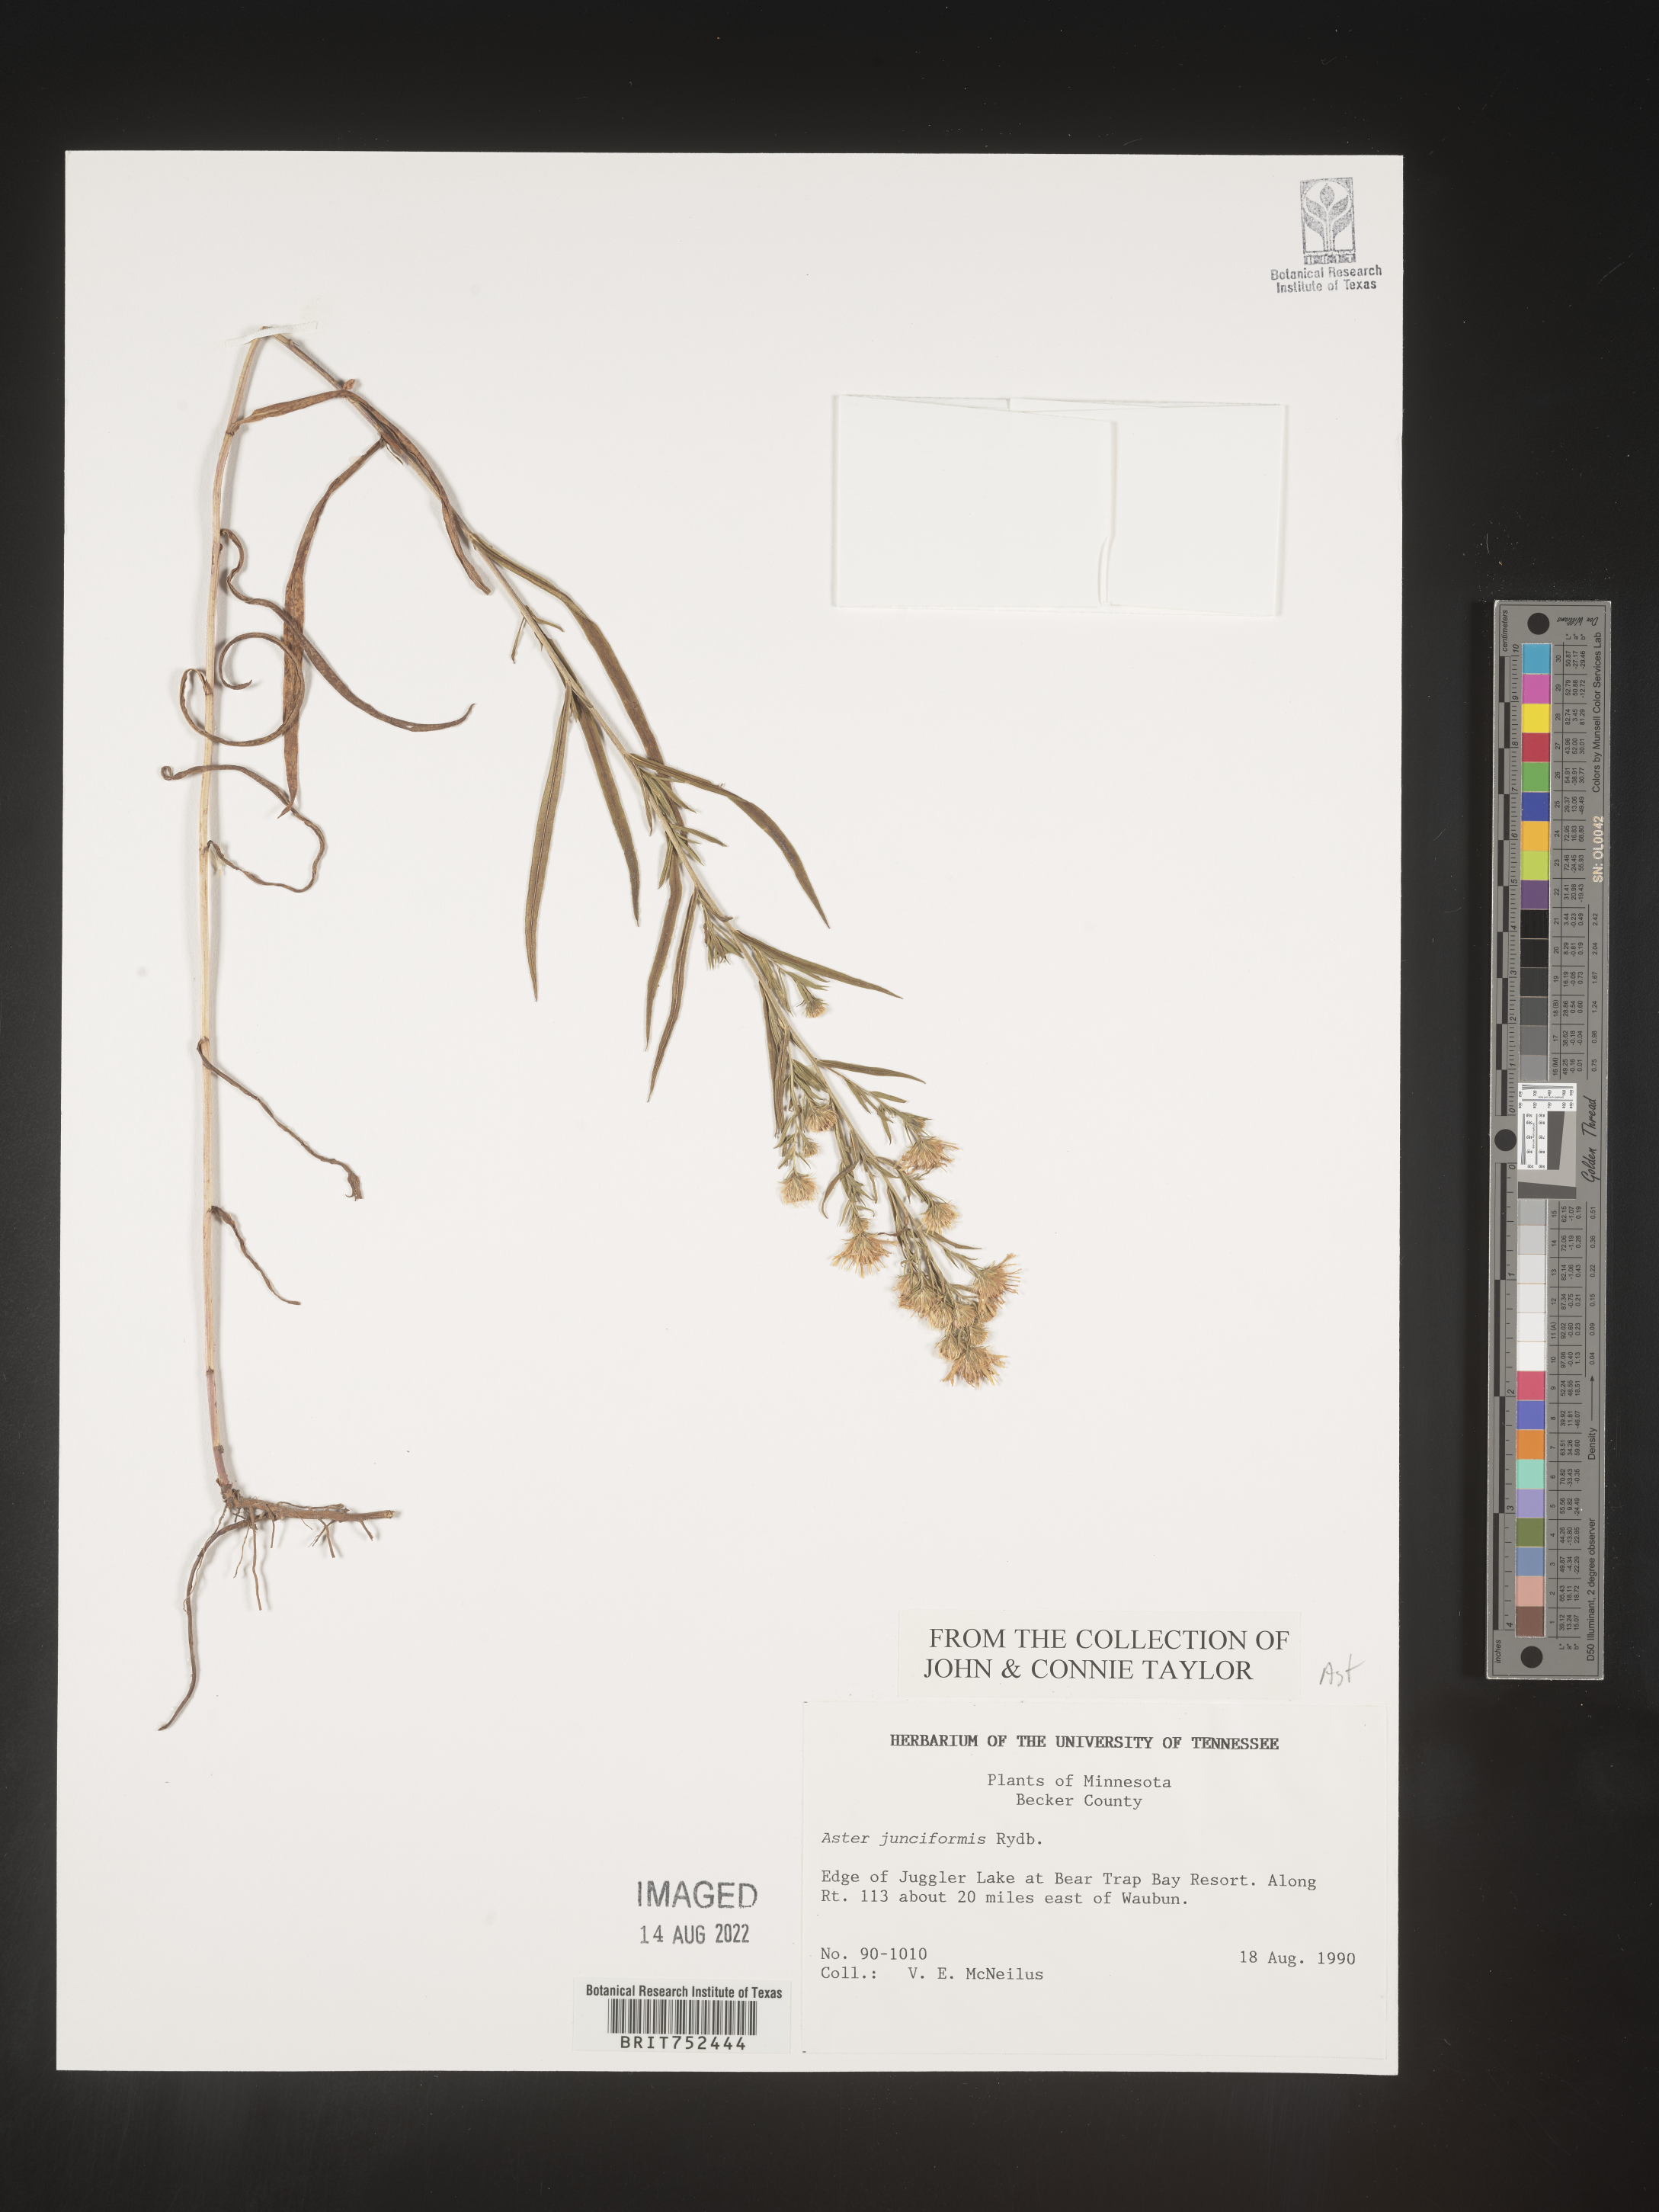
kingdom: Plantae
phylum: Tracheophyta
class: Magnoliopsida
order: Asterales
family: Asteraceae
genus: Symphyotrichum
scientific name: Symphyotrichum boreale
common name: Northern bog aster
